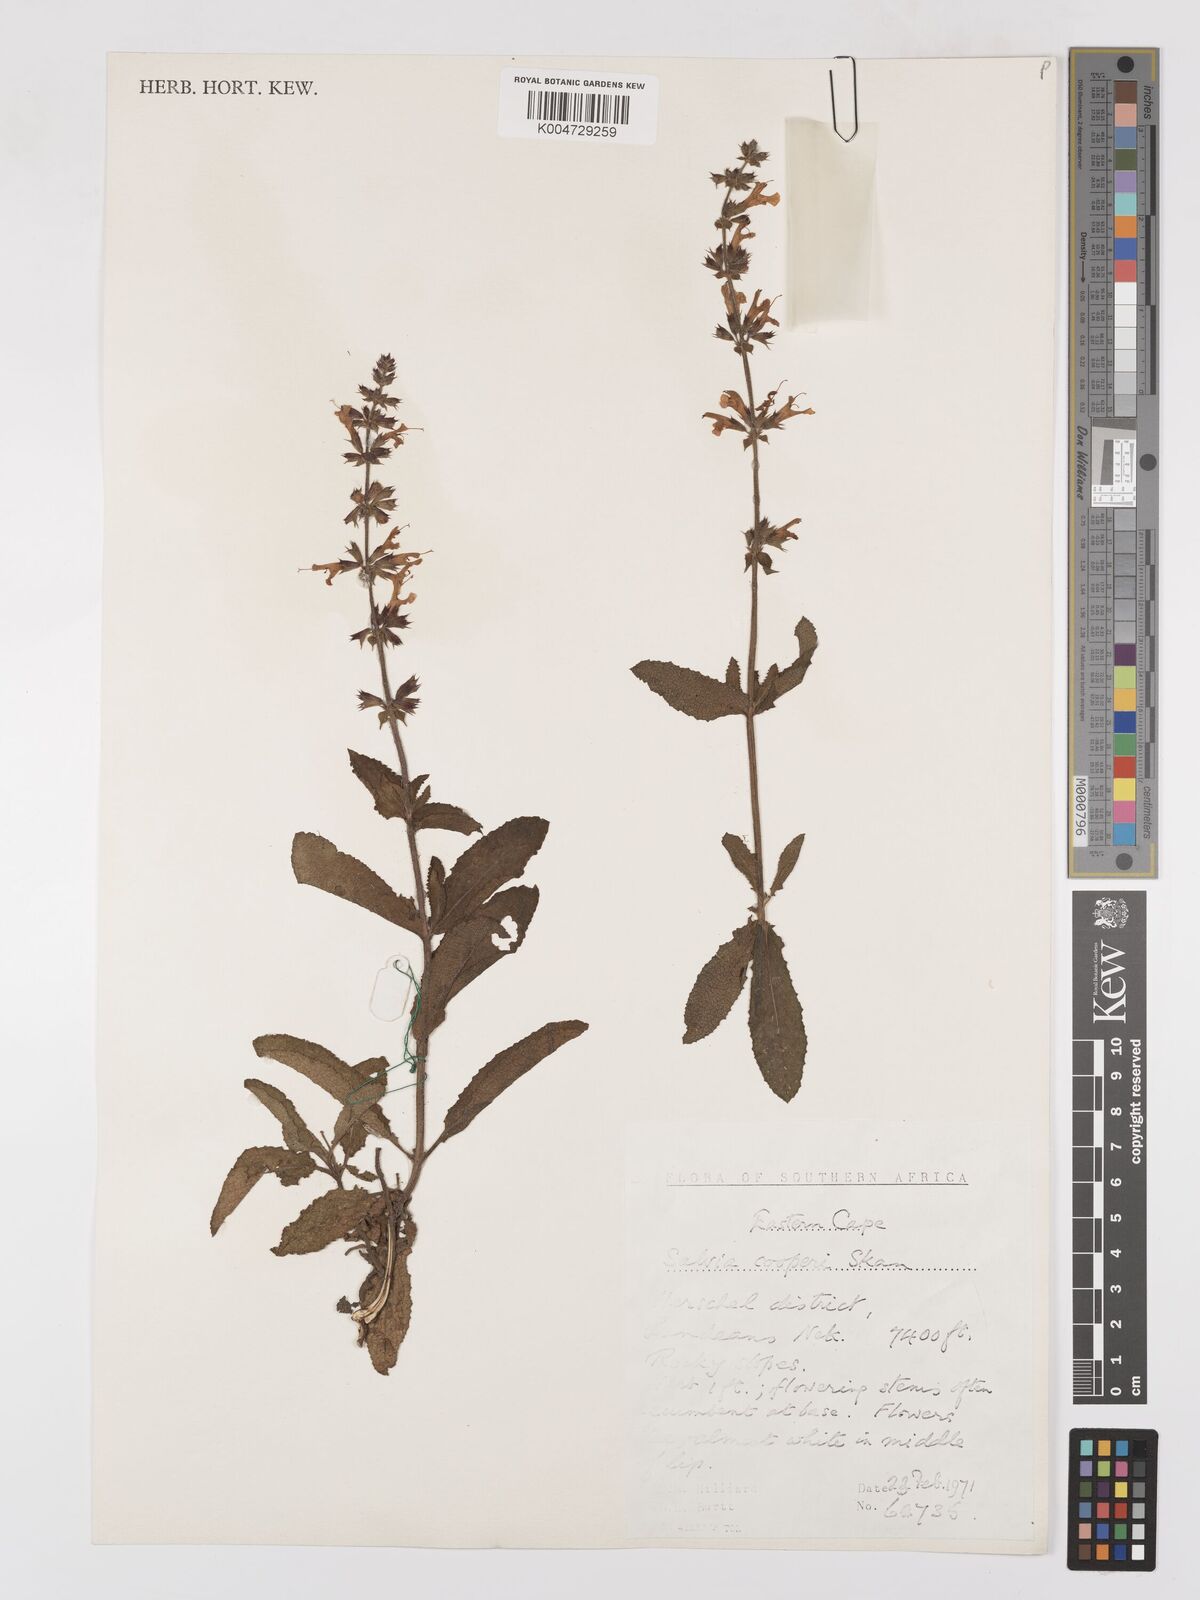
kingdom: Plantae
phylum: Tracheophyta
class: Magnoliopsida
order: Lamiales
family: Lamiaceae
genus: Salvia
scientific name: Salvia repens
